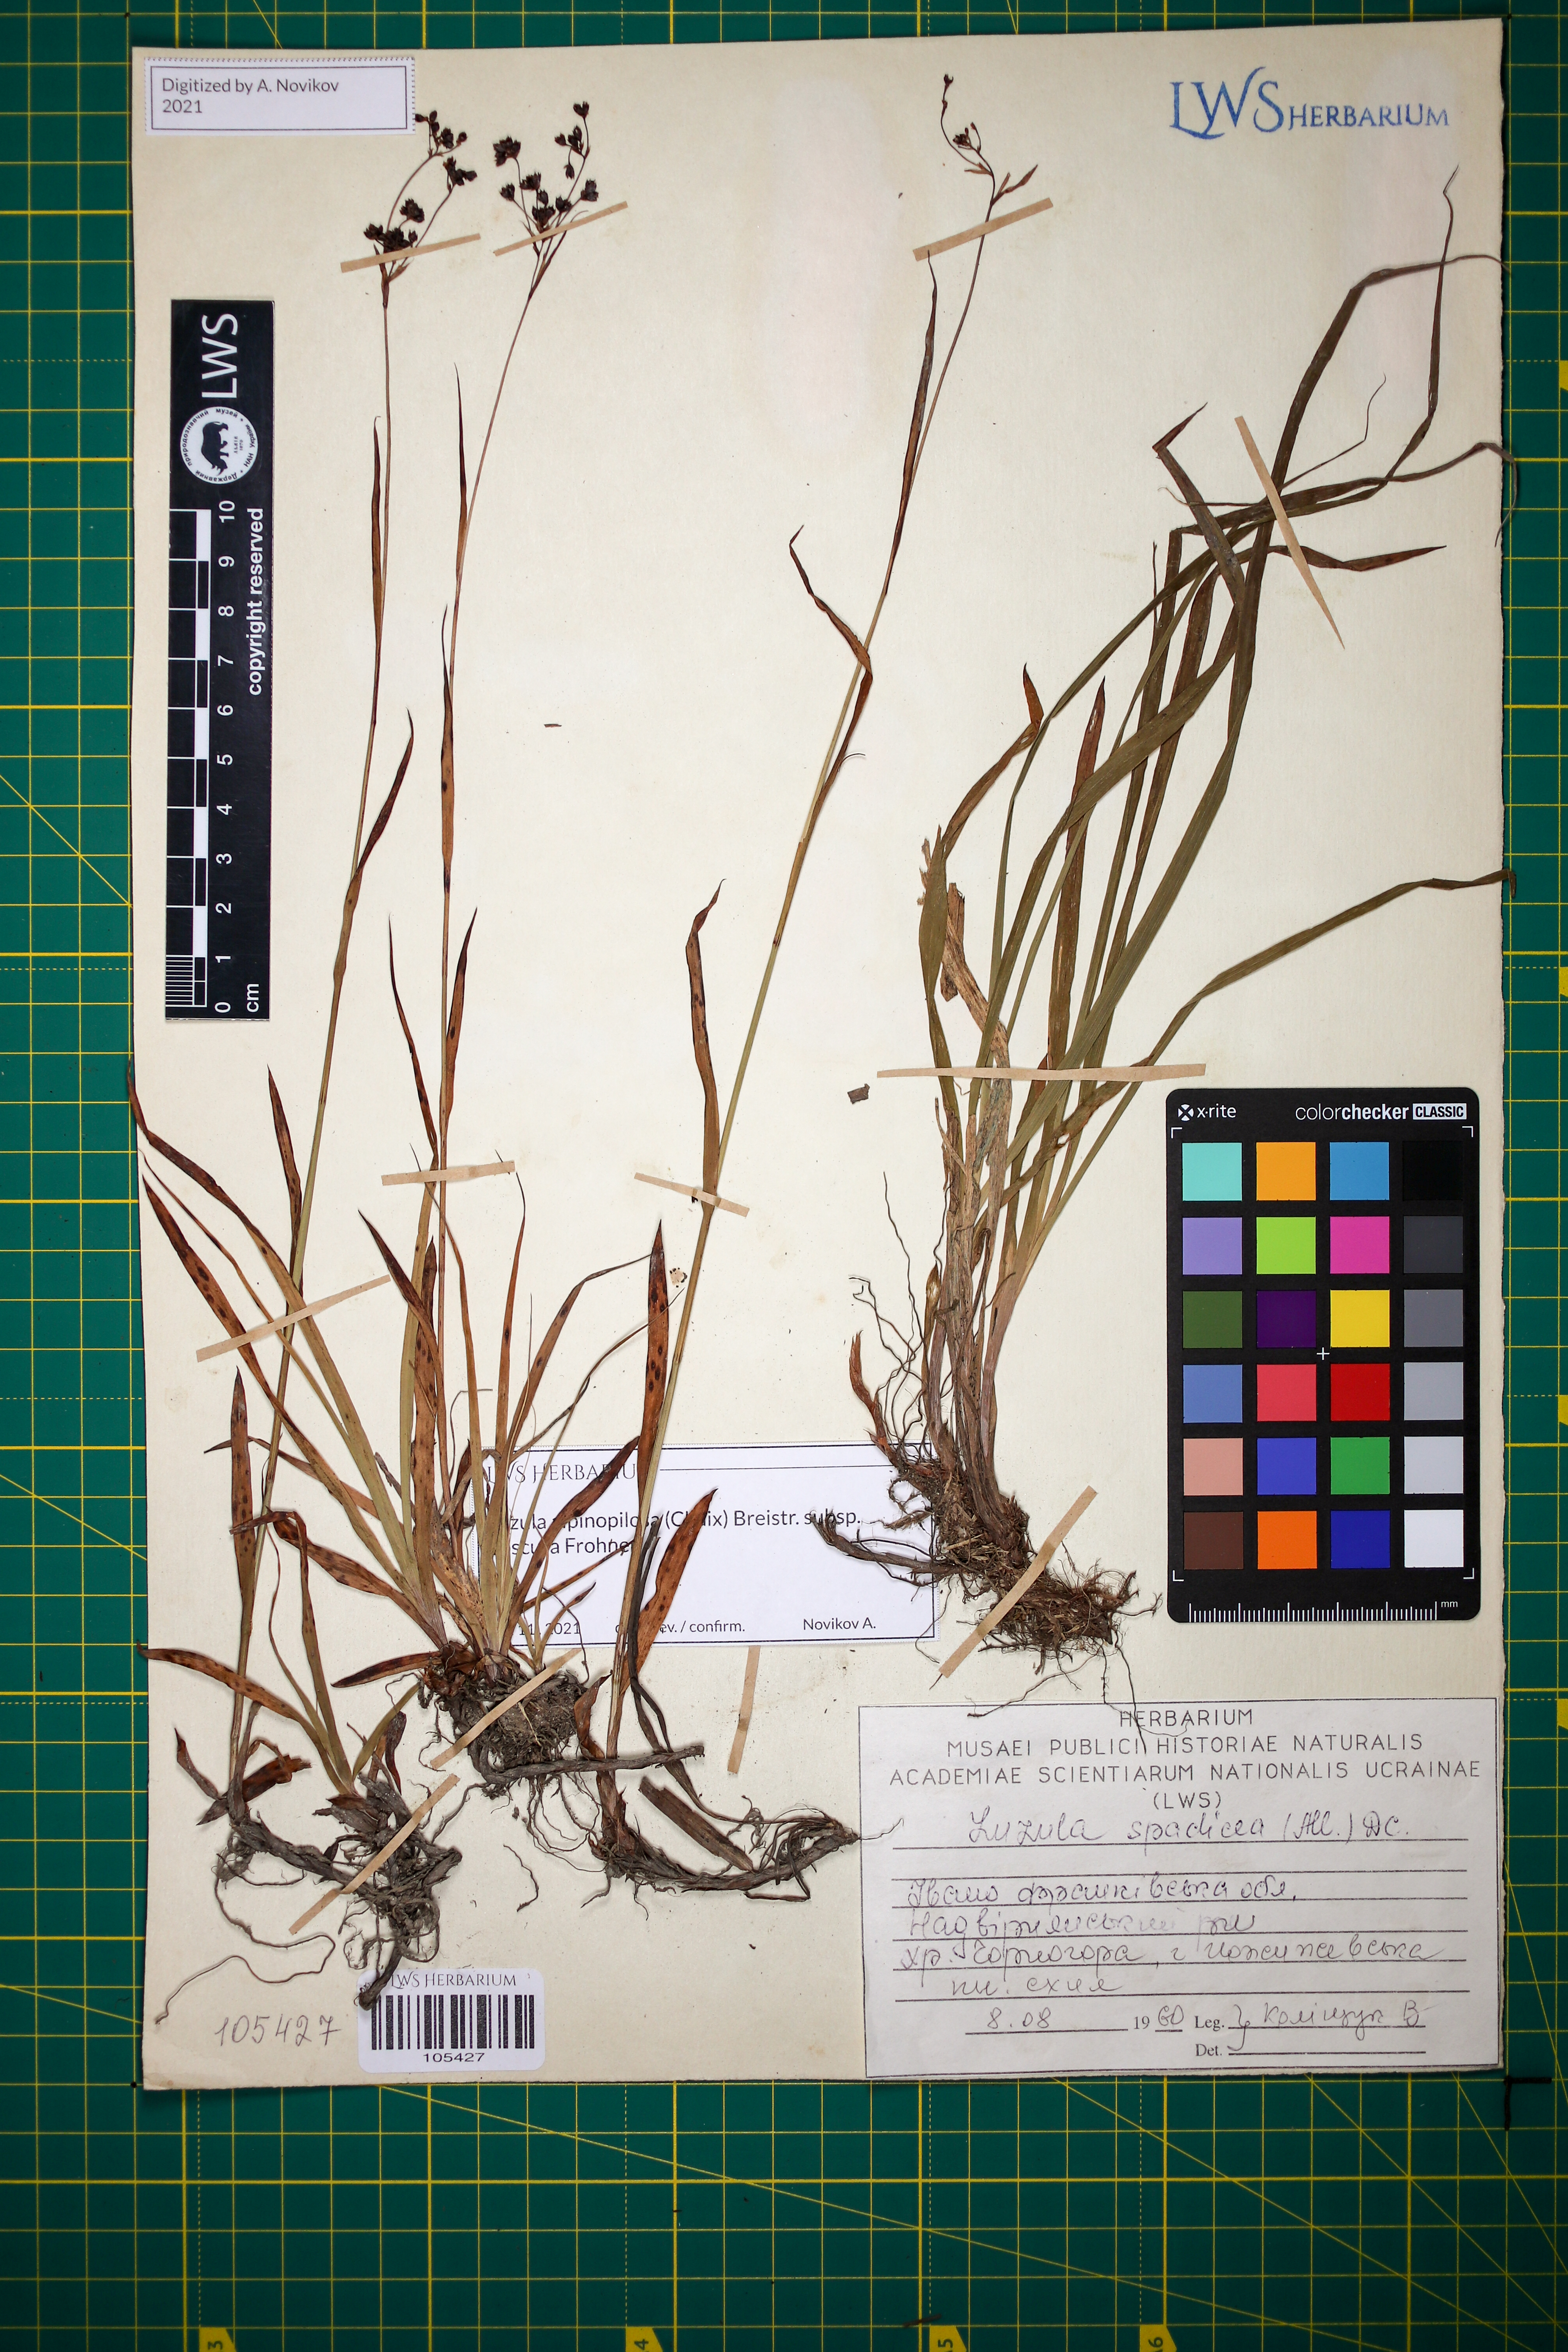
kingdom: Plantae
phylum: Tracheophyta
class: Liliopsida
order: Poales
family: Juncaceae
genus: Luzula
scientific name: Luzula alpinopilosa
